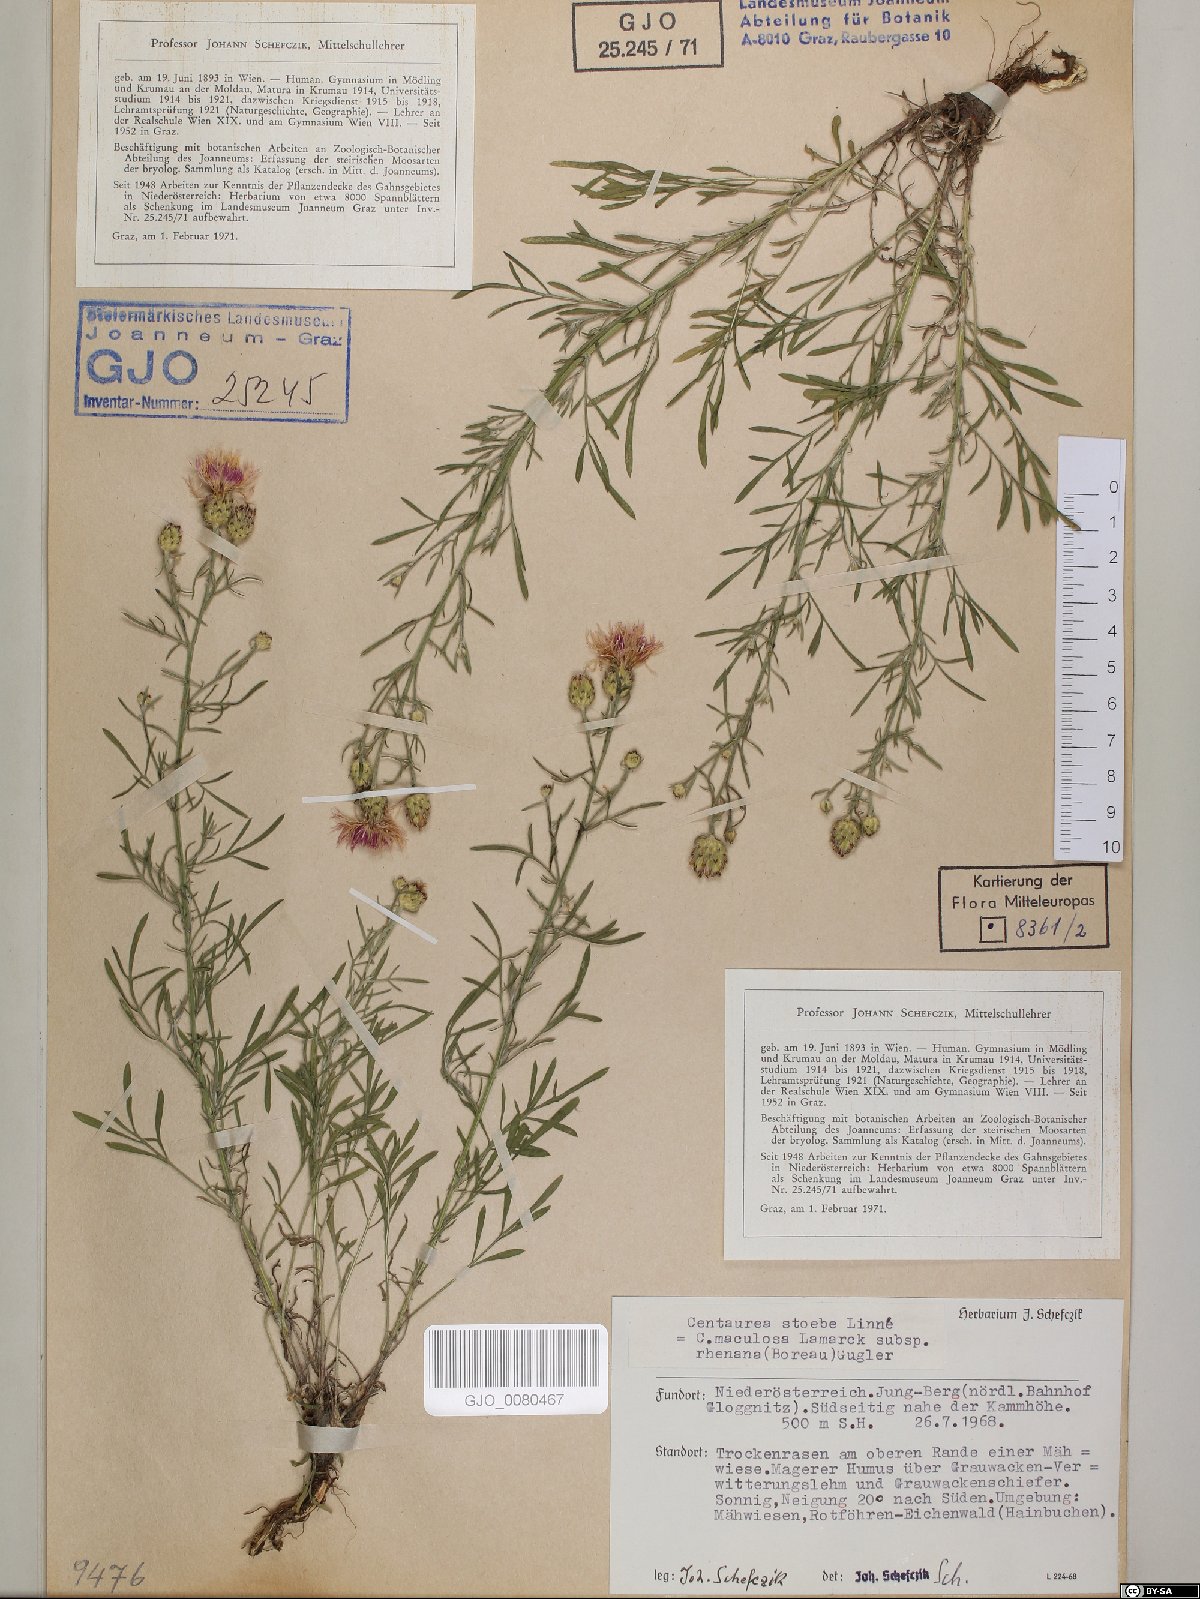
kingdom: Plantae
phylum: Tracheophyta
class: Magnoliopsida
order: Asterales
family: Asteraceae
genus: Centaurea
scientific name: Centaurea stoebe
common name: Spotted knapweed
